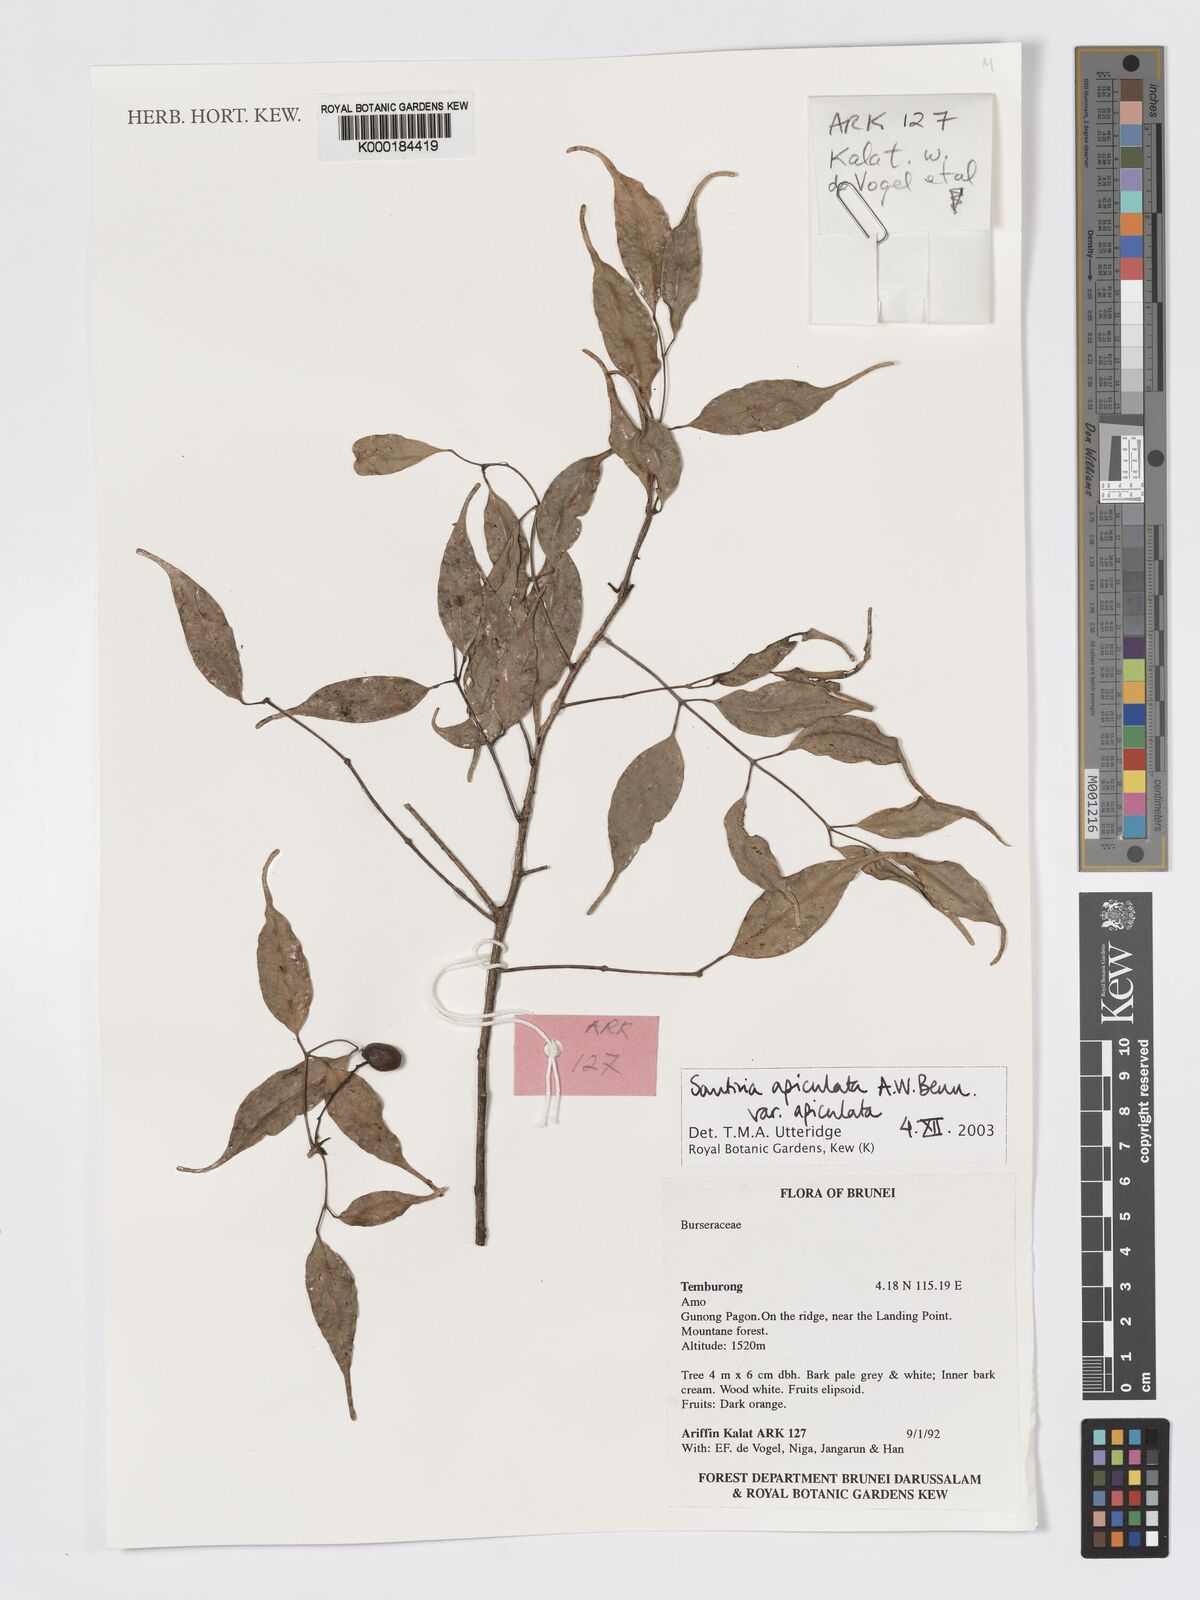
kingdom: Plantae
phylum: Tracheophyta
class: Magnoliopsida
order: Sapindales
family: Burseraceae
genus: Santiria
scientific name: Santiria apiculata
